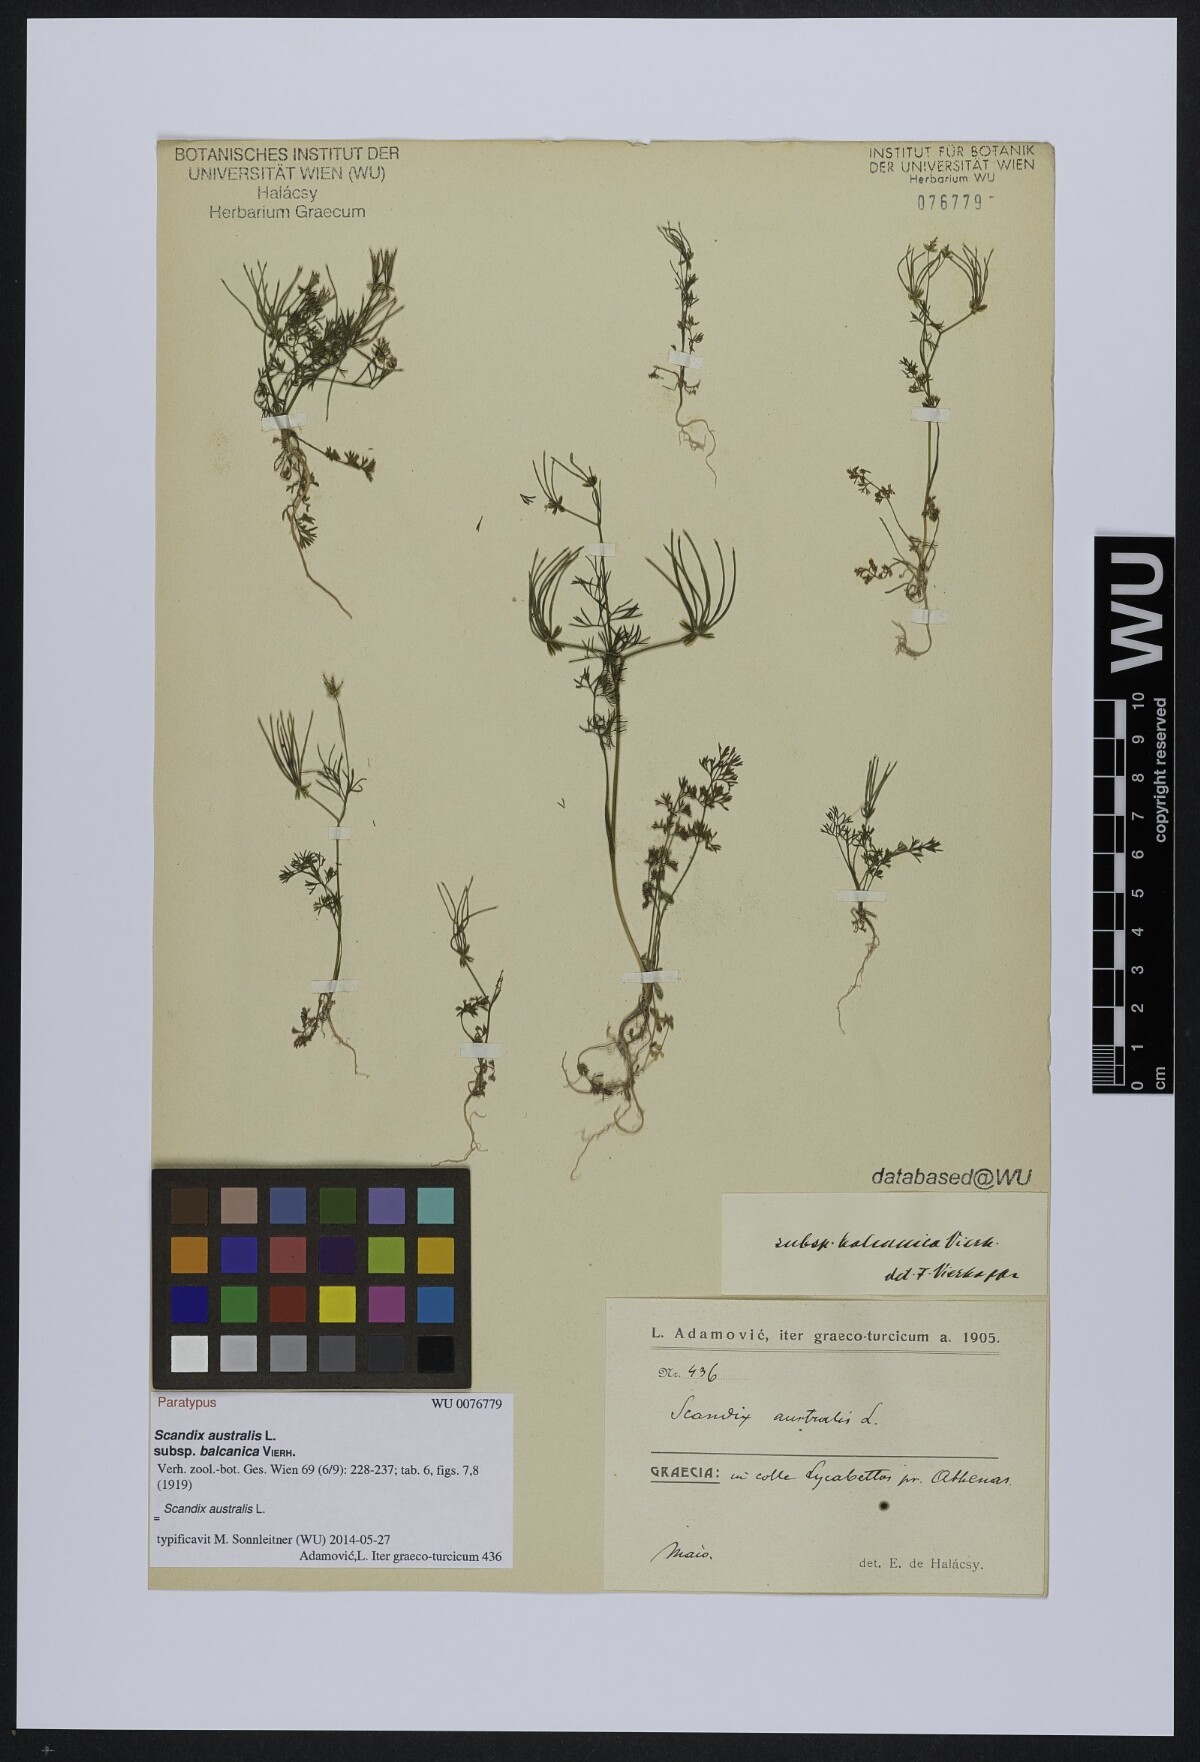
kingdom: Plantae
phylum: Tracheophyta
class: Magnoliopsida
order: Apiales
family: Apiaceae
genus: Scandix
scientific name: Scandix australis
